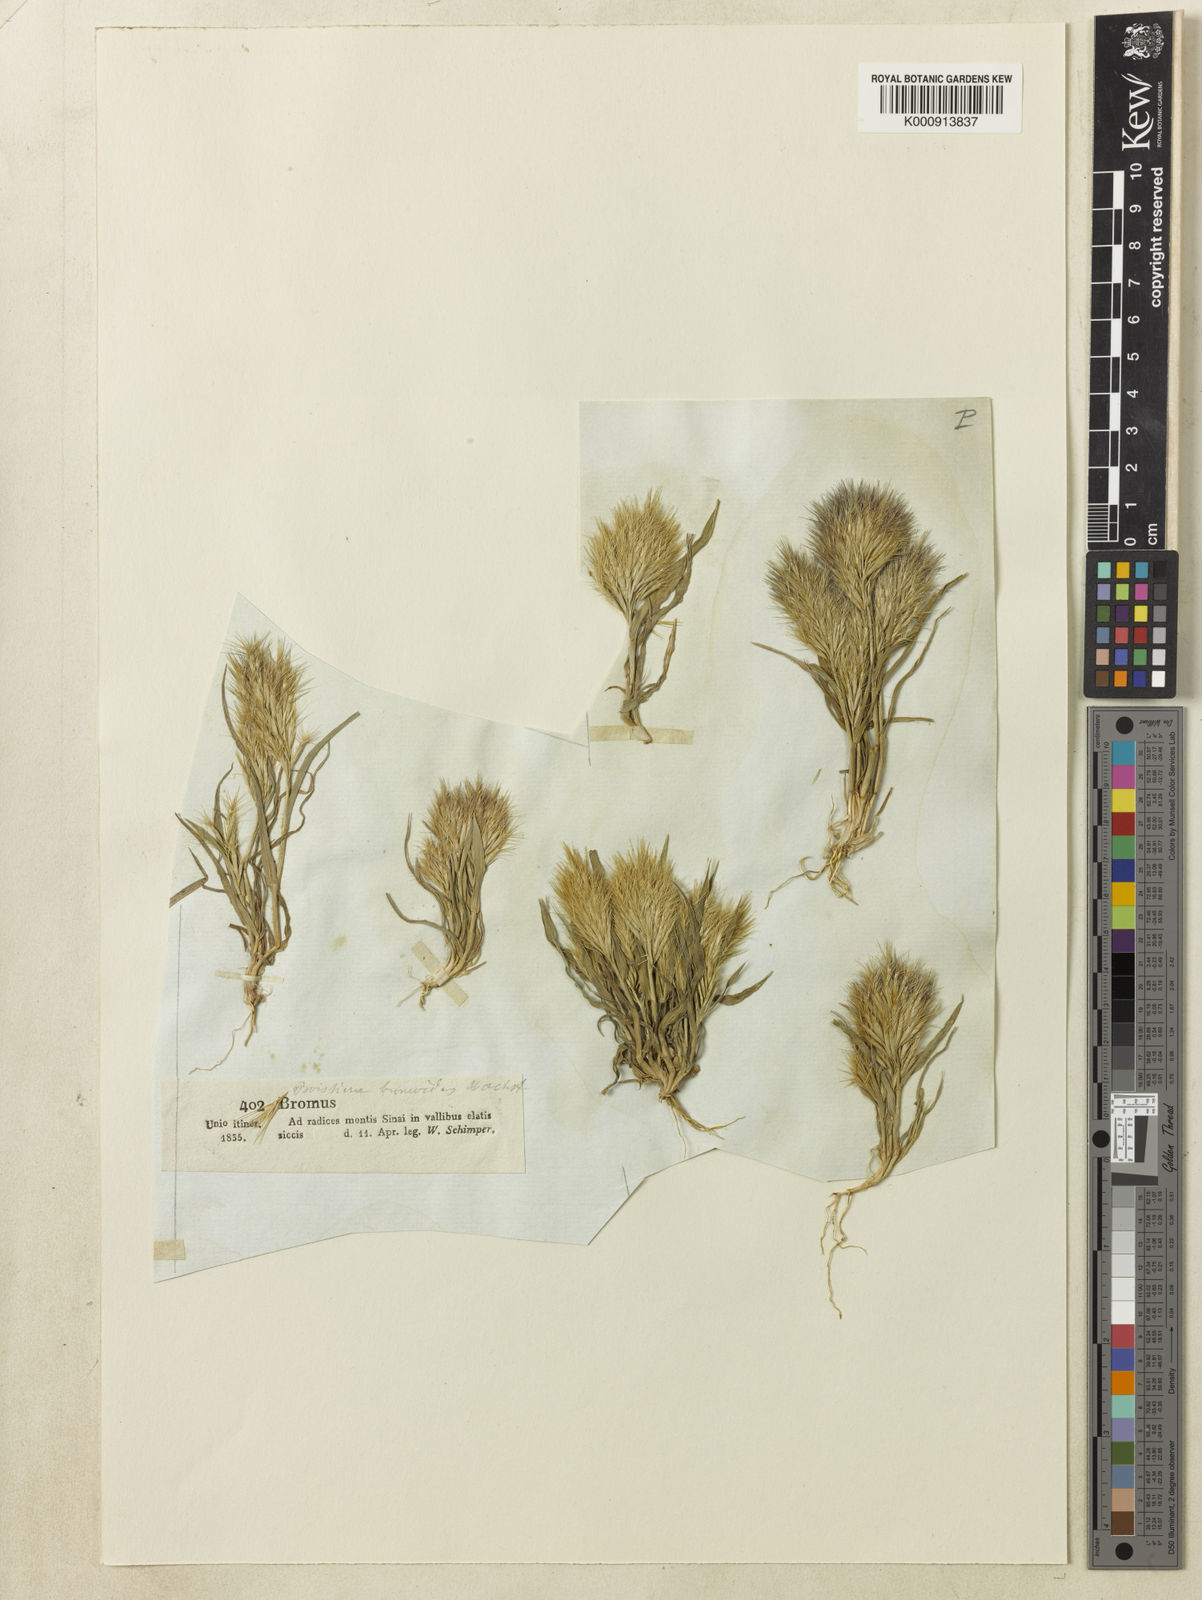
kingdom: Plantae
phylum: Tracheophyta
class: Liliopsida
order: Poales
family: Poaceae
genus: Bromus
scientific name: Bromus pumilio
